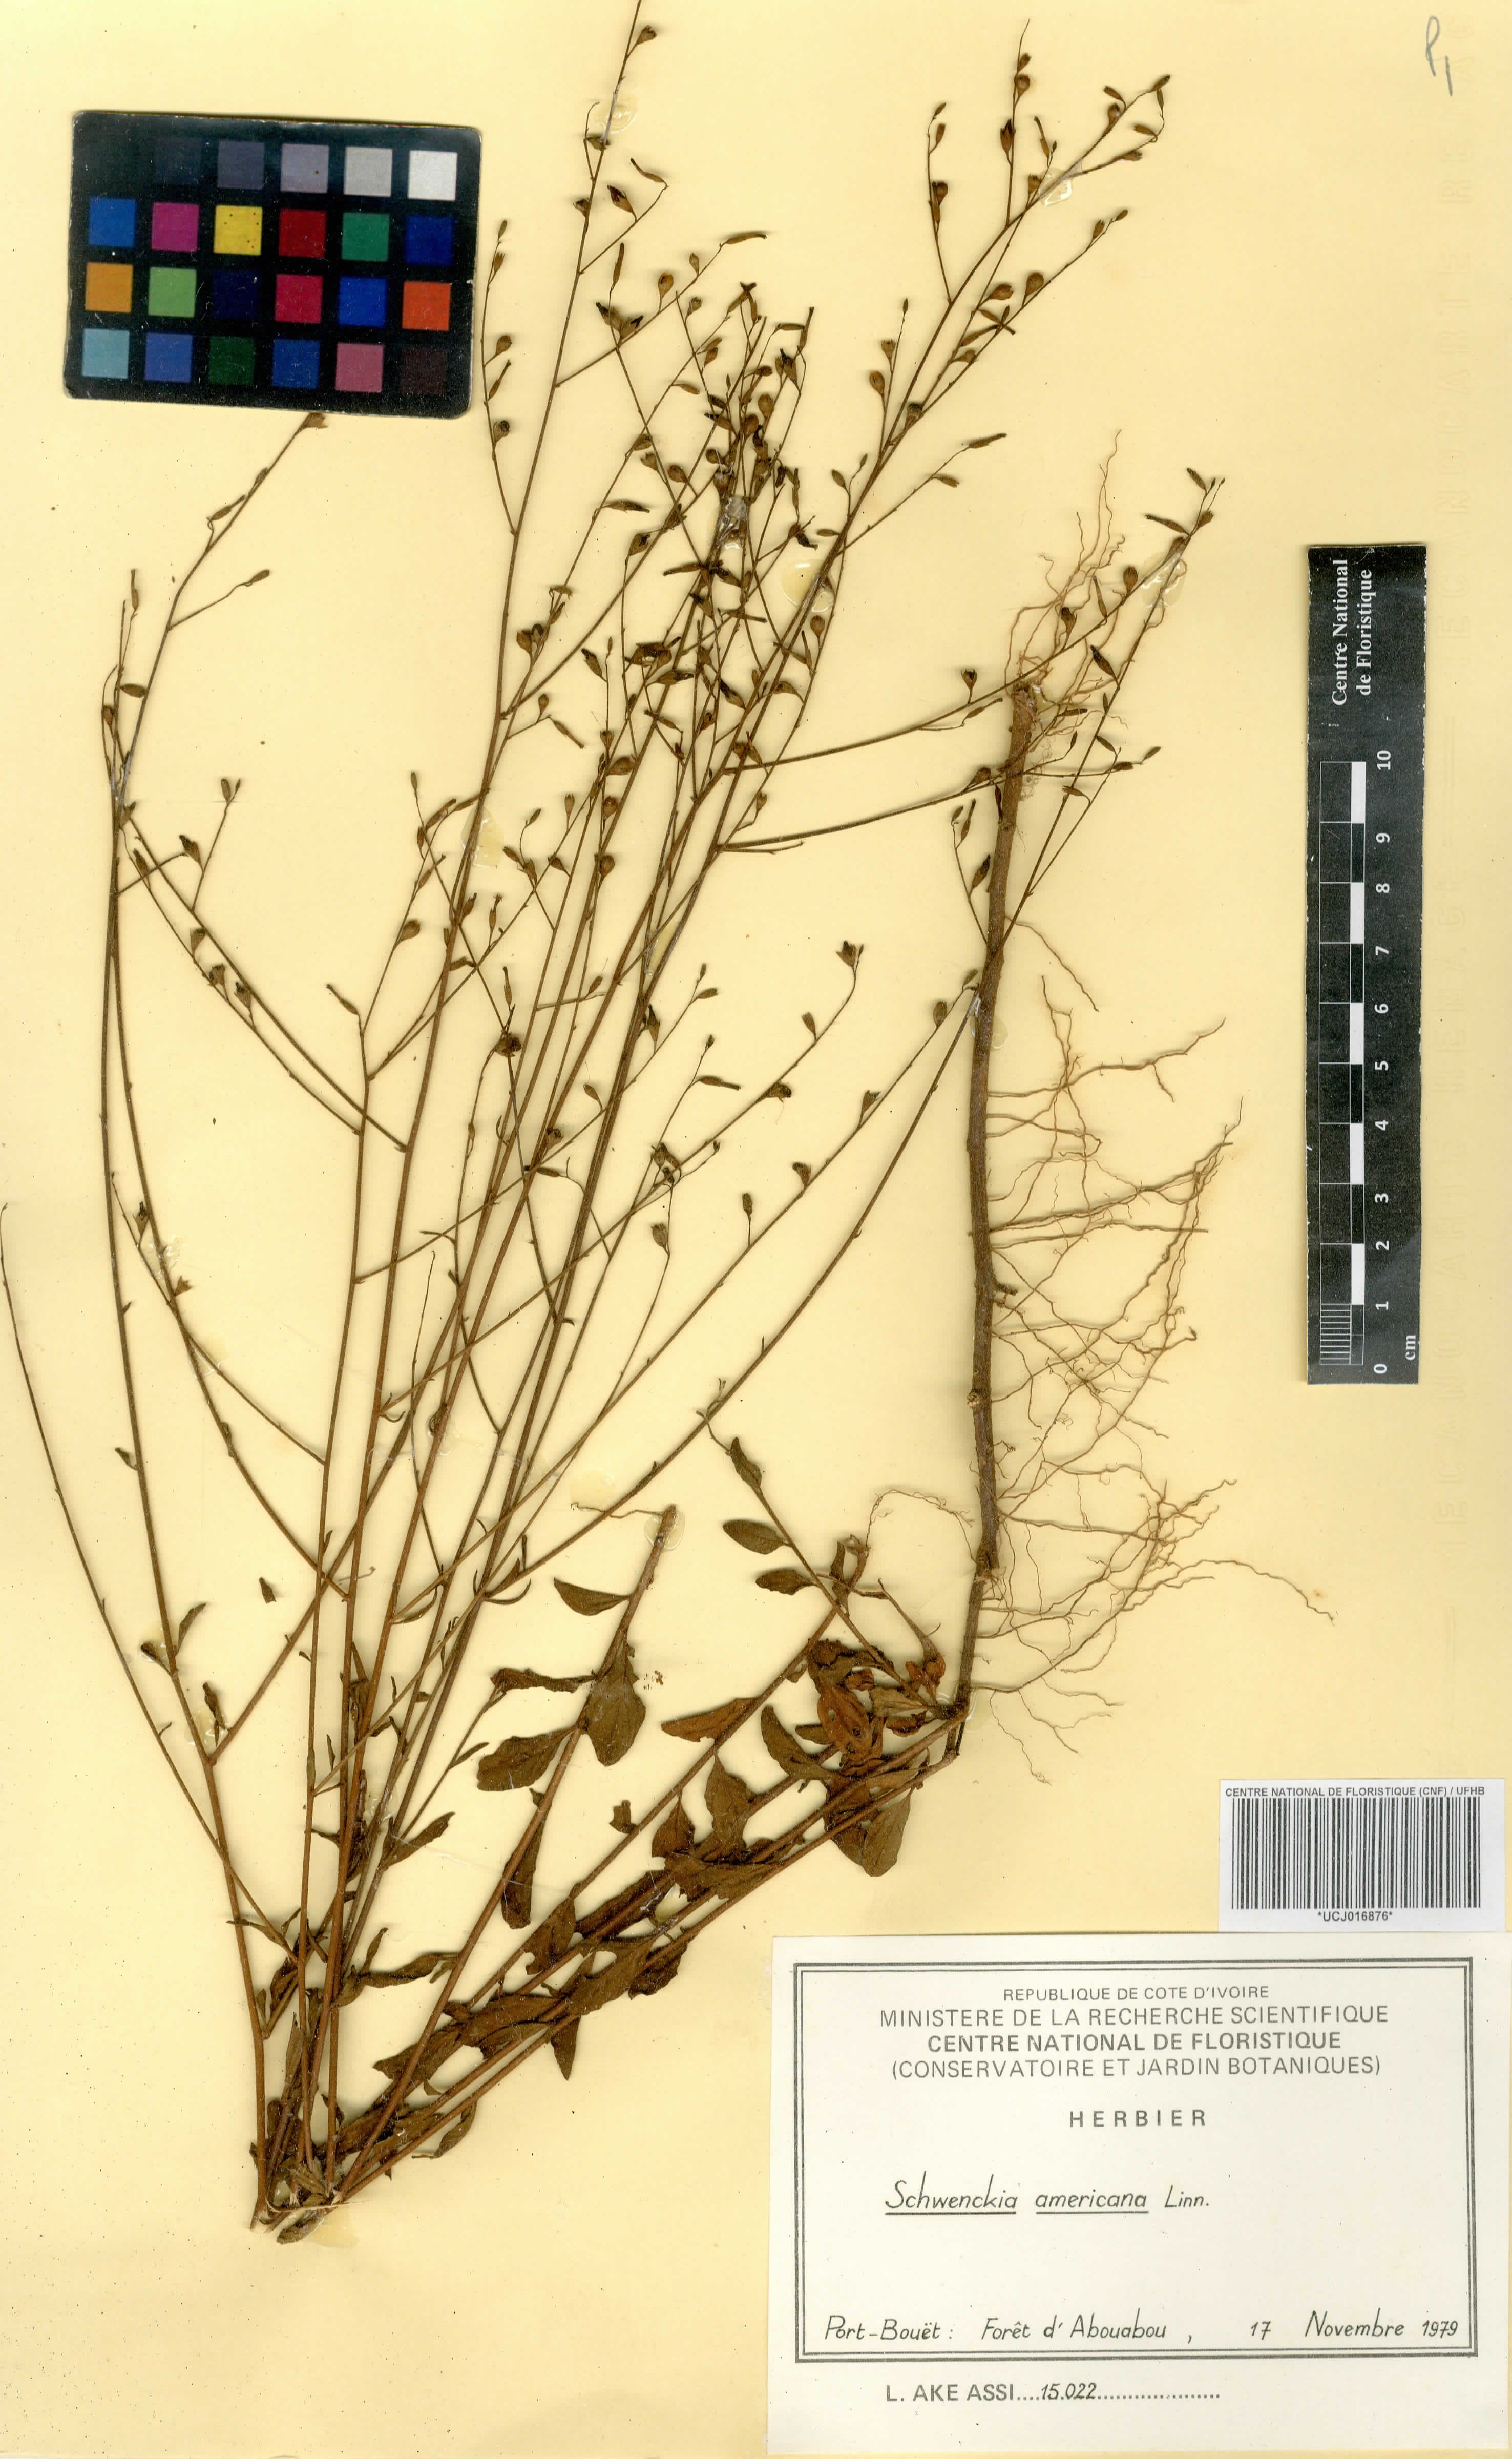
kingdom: Plantae
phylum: Tracheophyta
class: Magnoliopsida
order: Solanales
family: Solanaceae
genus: Schwenckia
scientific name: Schwenckia americana
